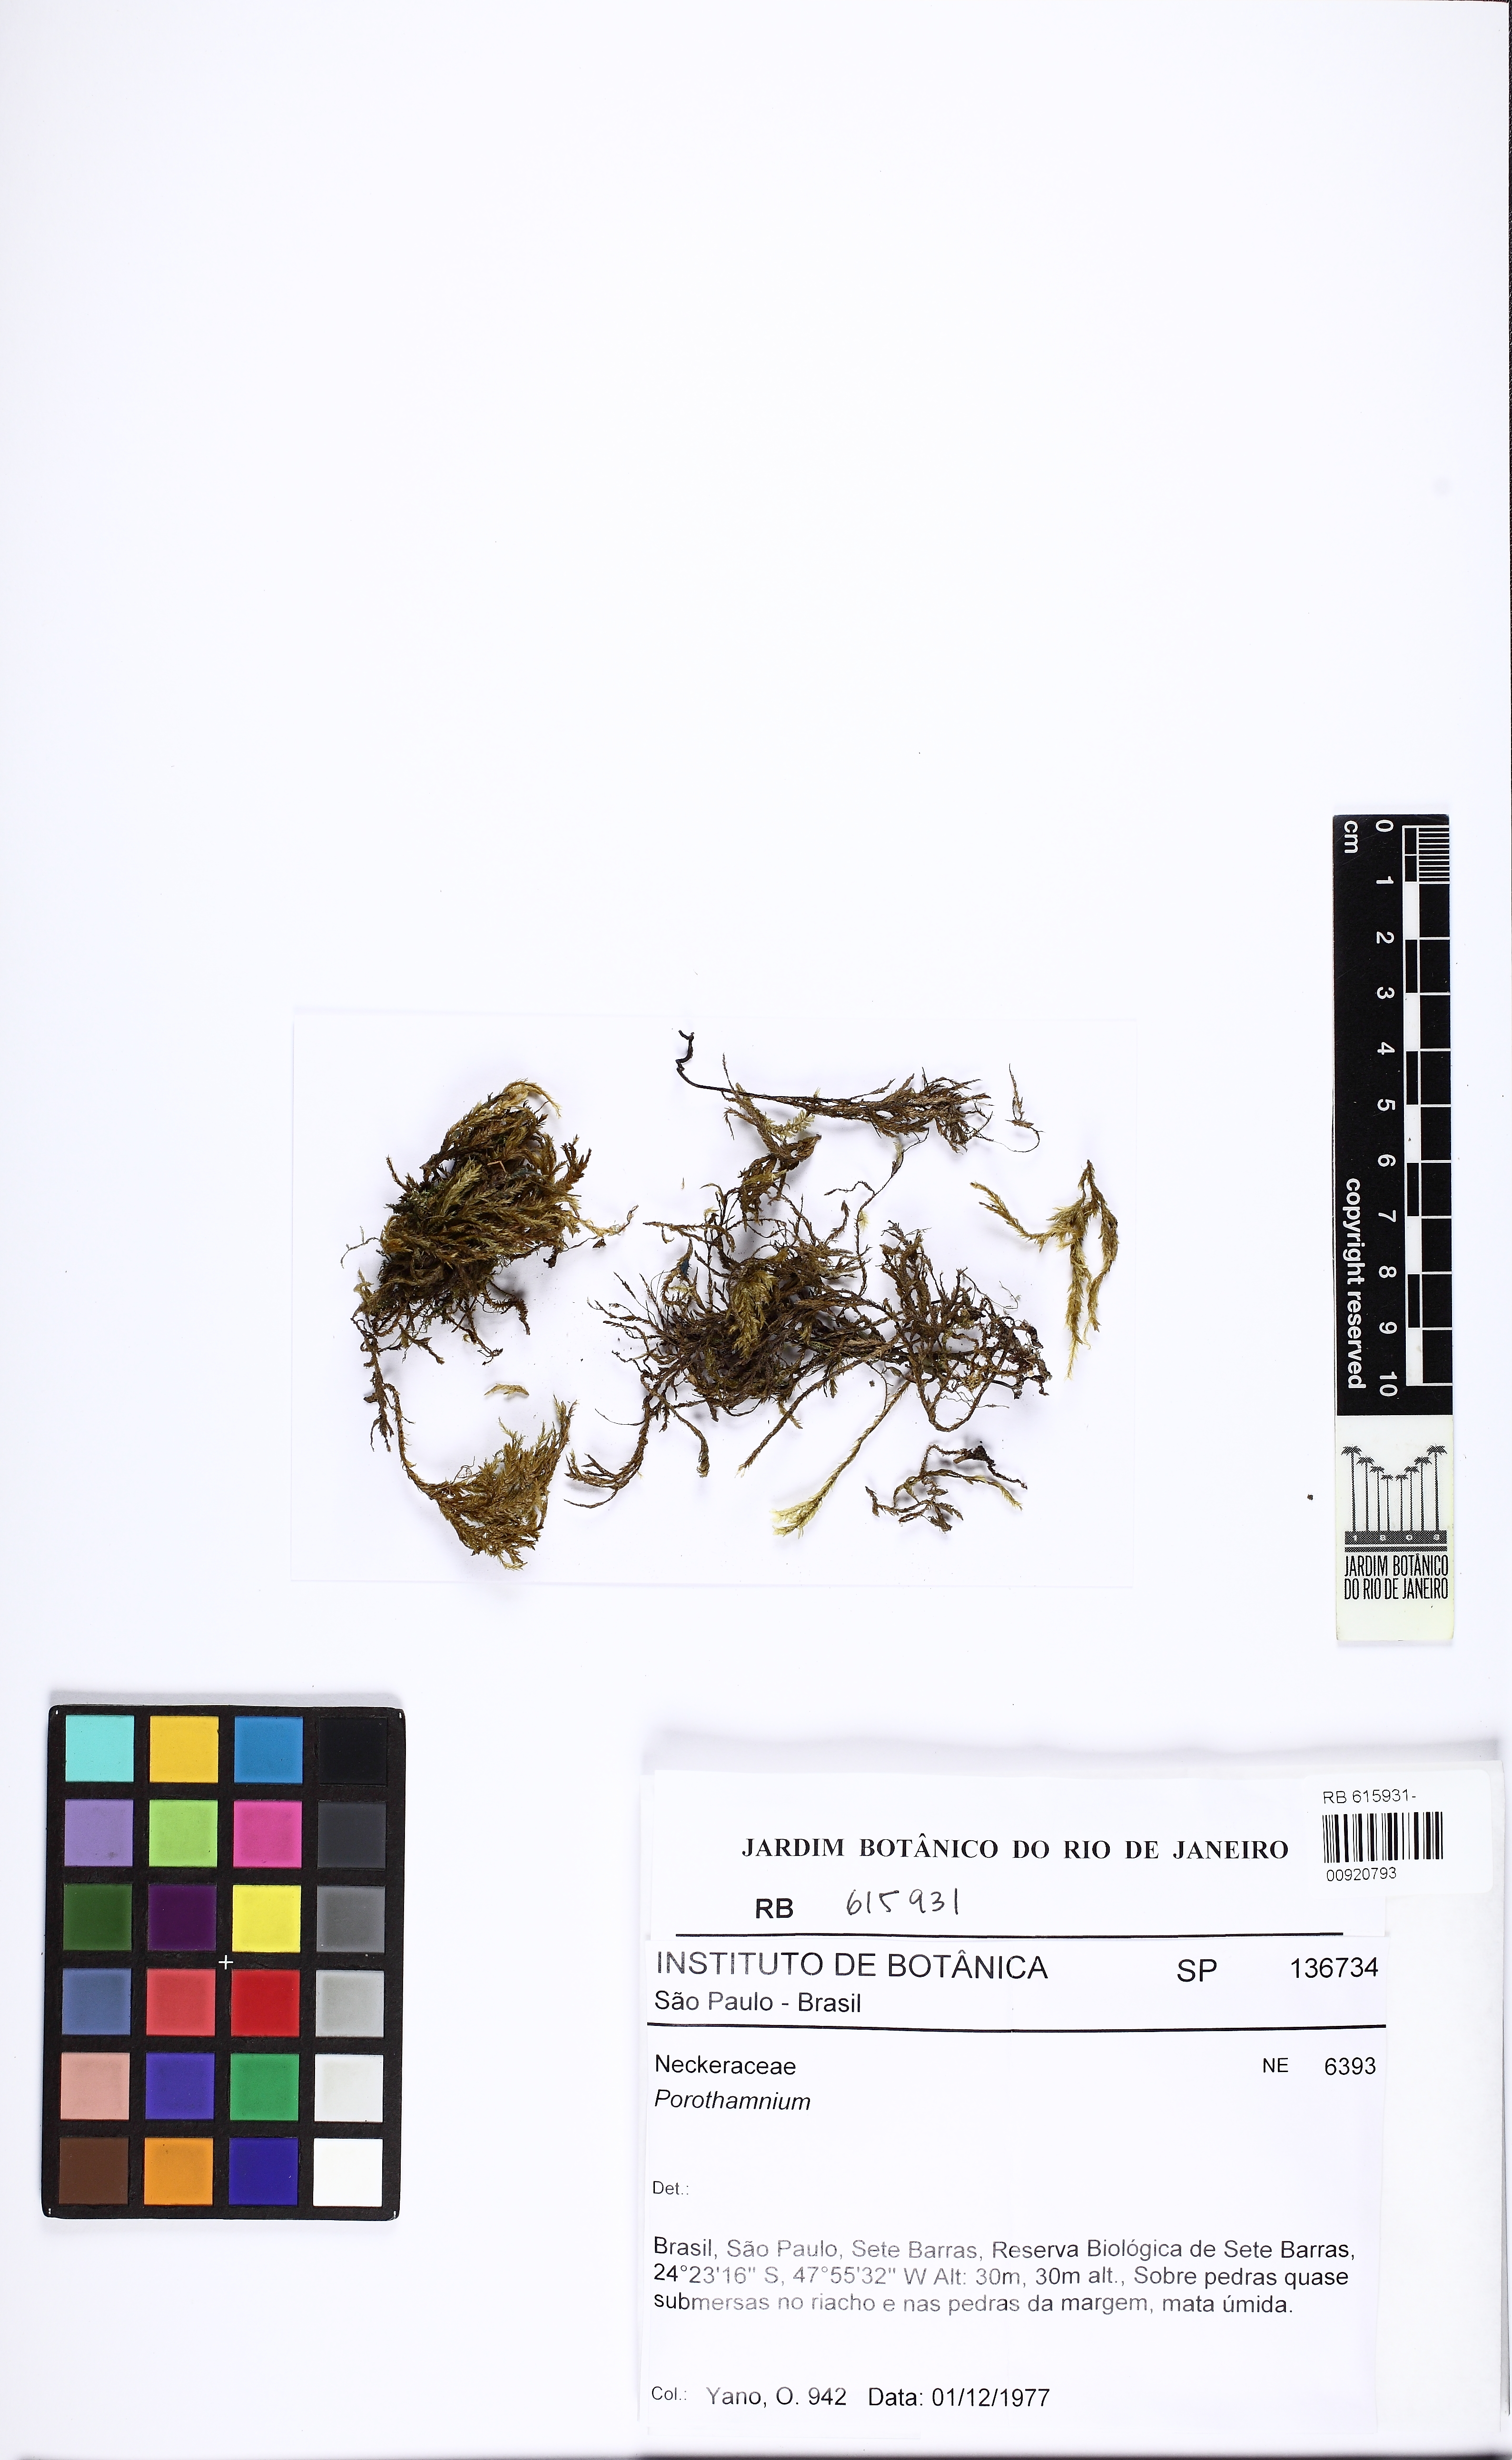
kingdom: Plantae
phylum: Bryophyta
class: Bryopsida
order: Hypnales
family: Neckeraceae
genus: Porotrichum
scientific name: Porotrichum
